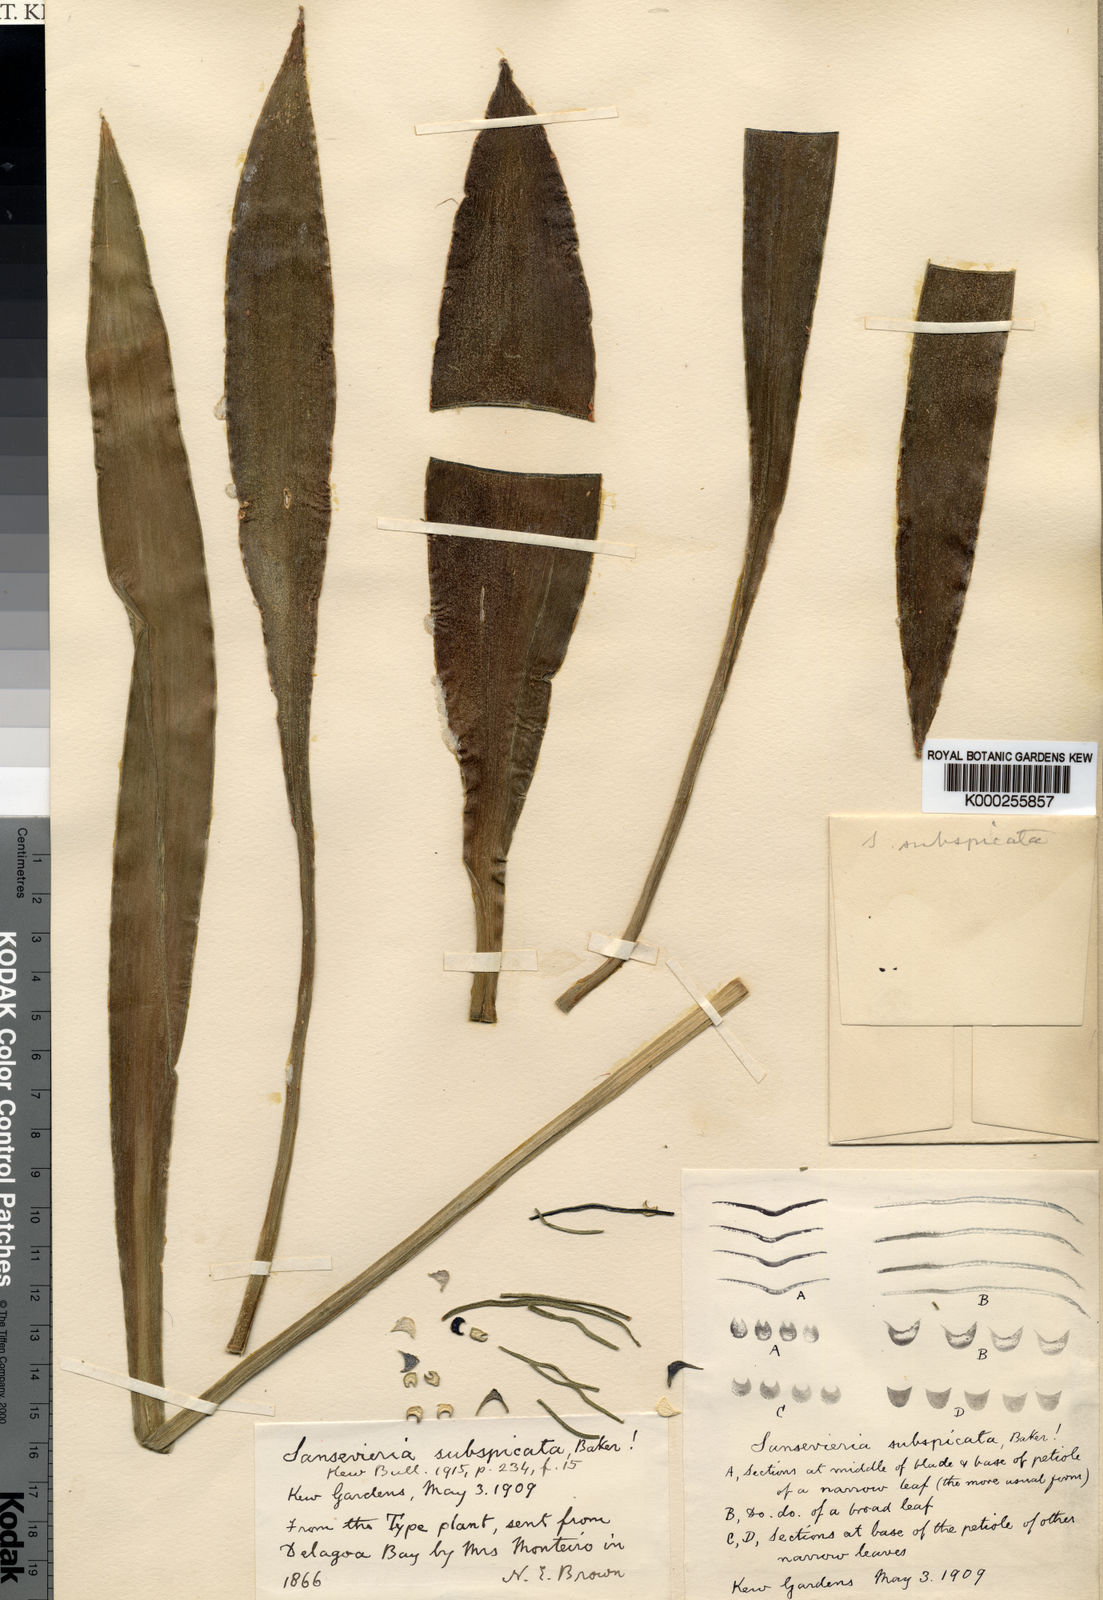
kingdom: Plantae
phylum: Tracheophyta
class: Liliopsida
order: Asparagales
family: Asparagaceae
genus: Dracaena
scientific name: Dracaena subspicata
